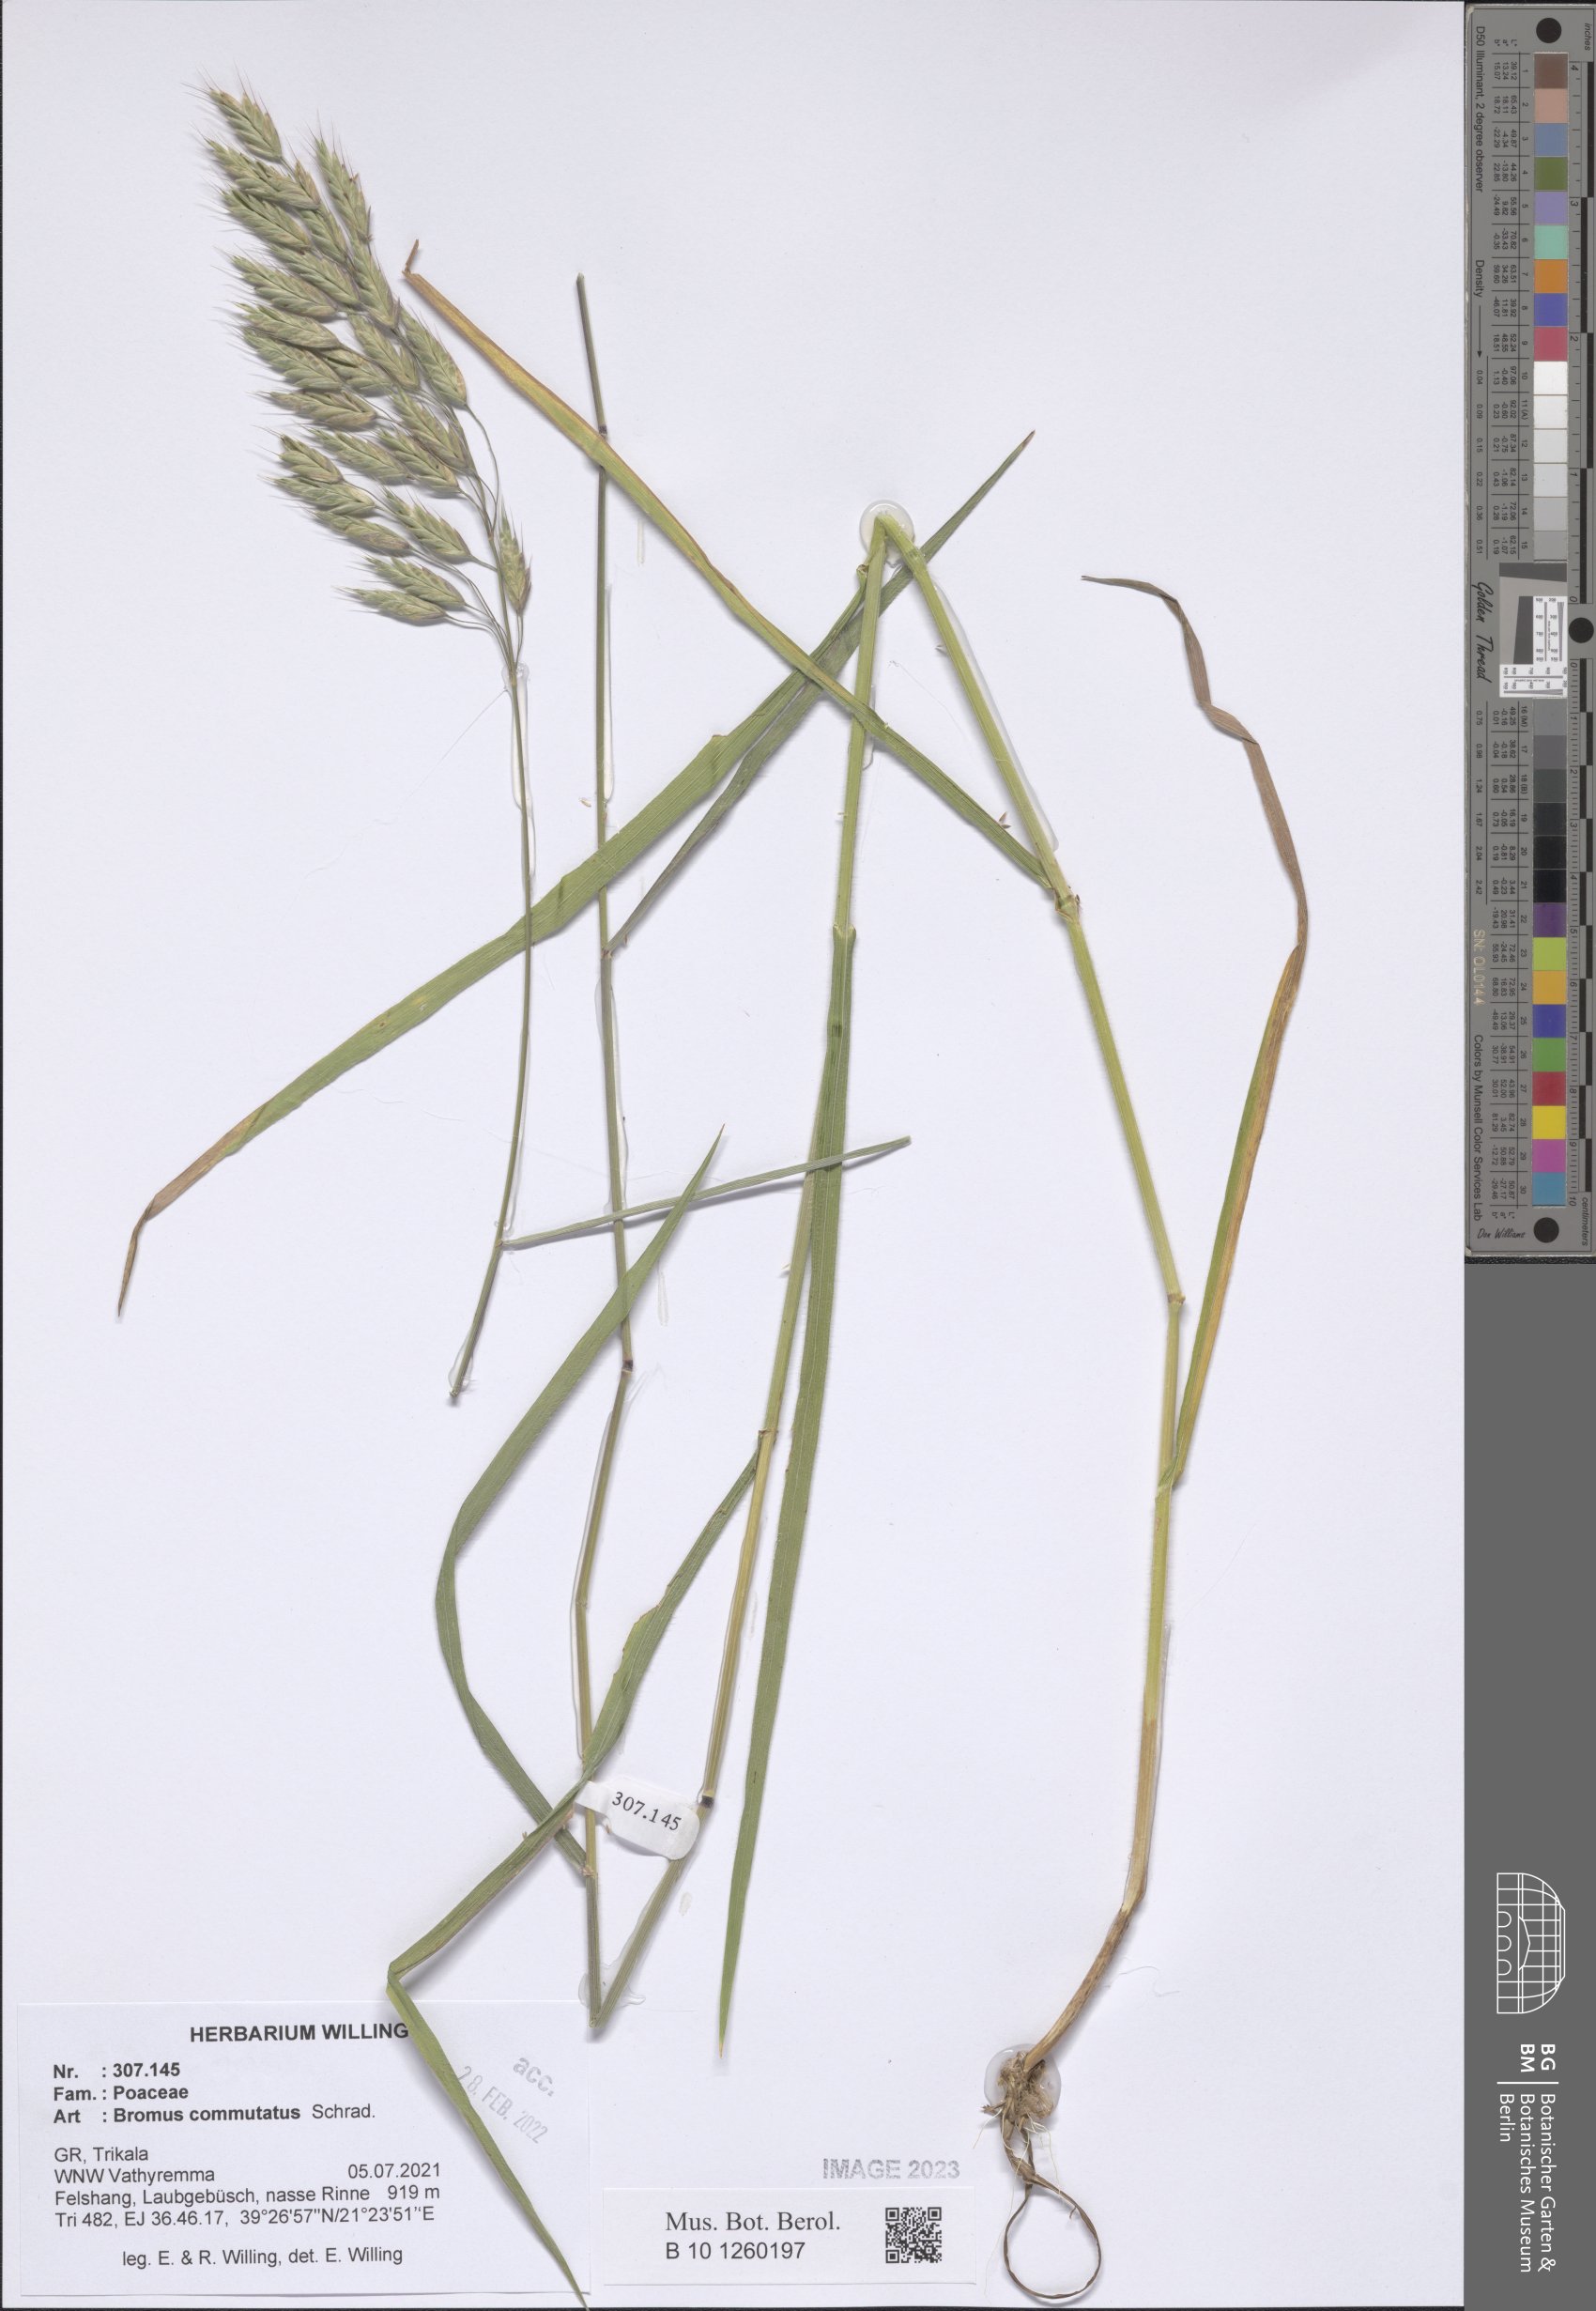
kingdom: Plantae
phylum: Tracheophyta
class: Liliopsida
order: Poales
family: Poaceae
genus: Bromus
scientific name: Bromus commutatus
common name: Meadow brome
